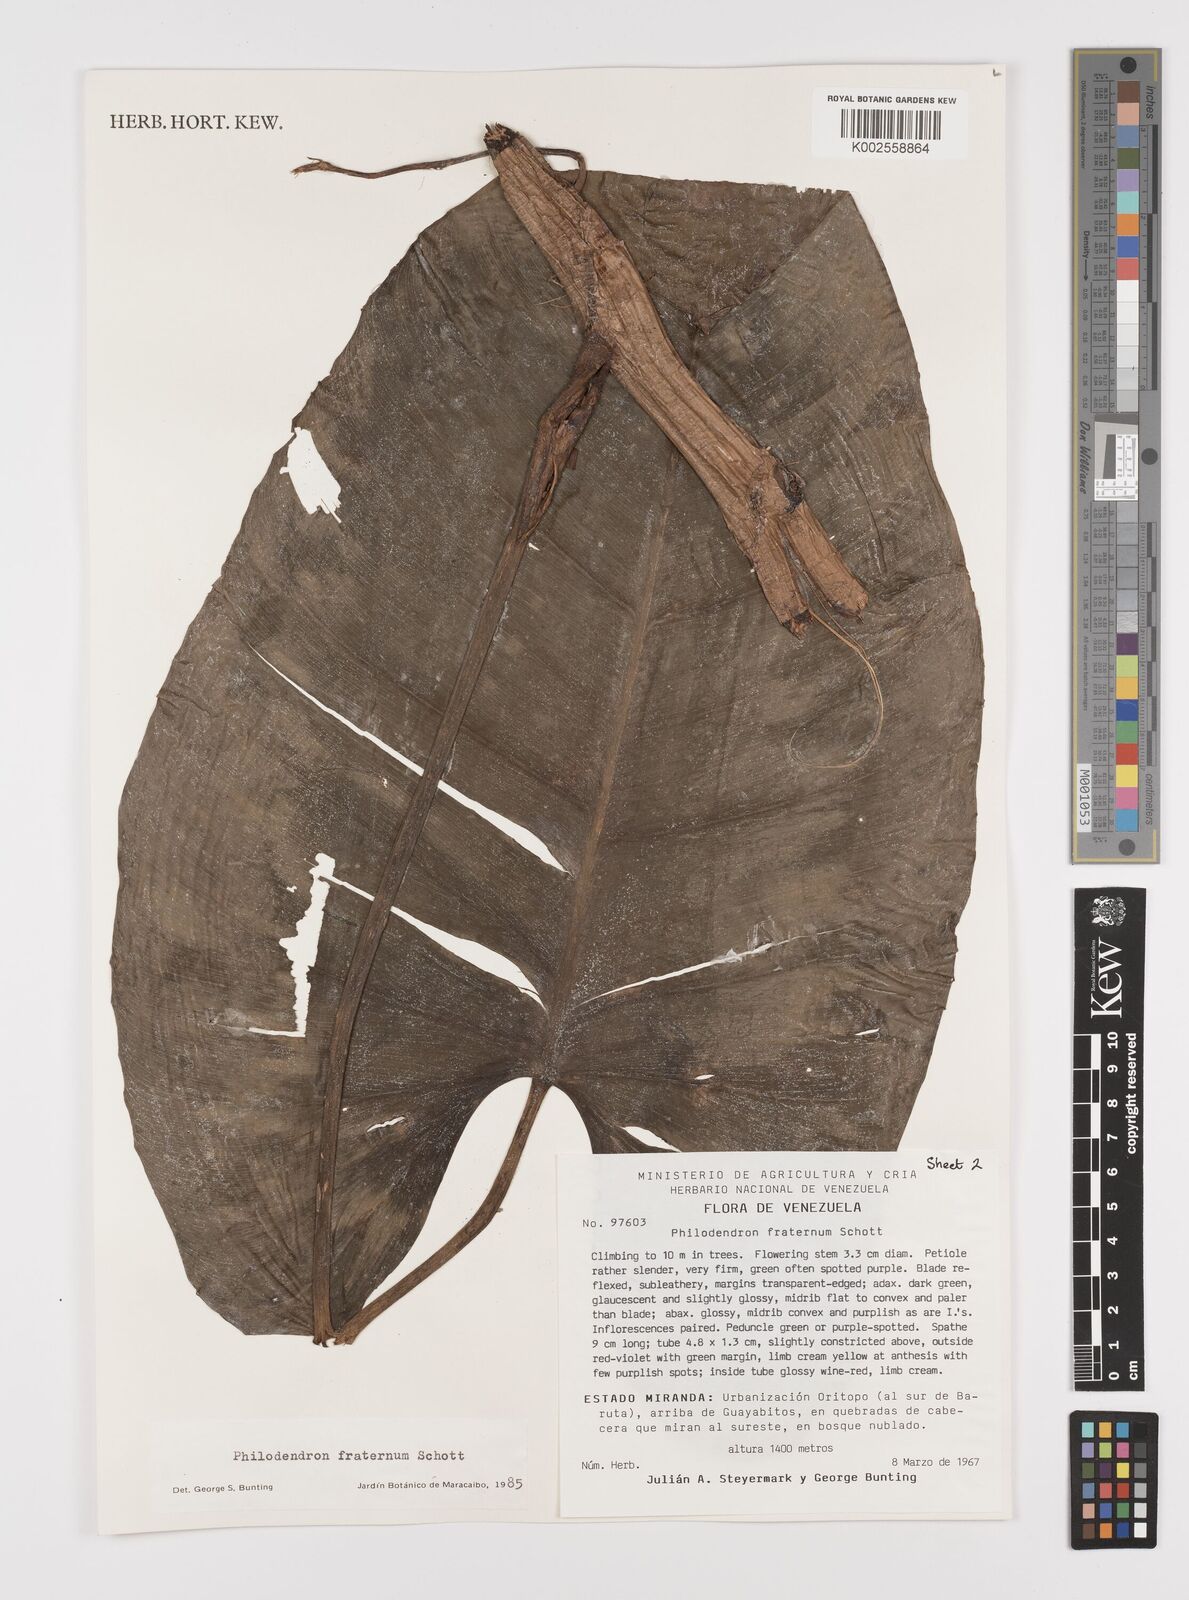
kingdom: Plantae
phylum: Tracheophyta
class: Liliopsida
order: Alismatales
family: Araceae
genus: Philodendron
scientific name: Philodendron fraternum
